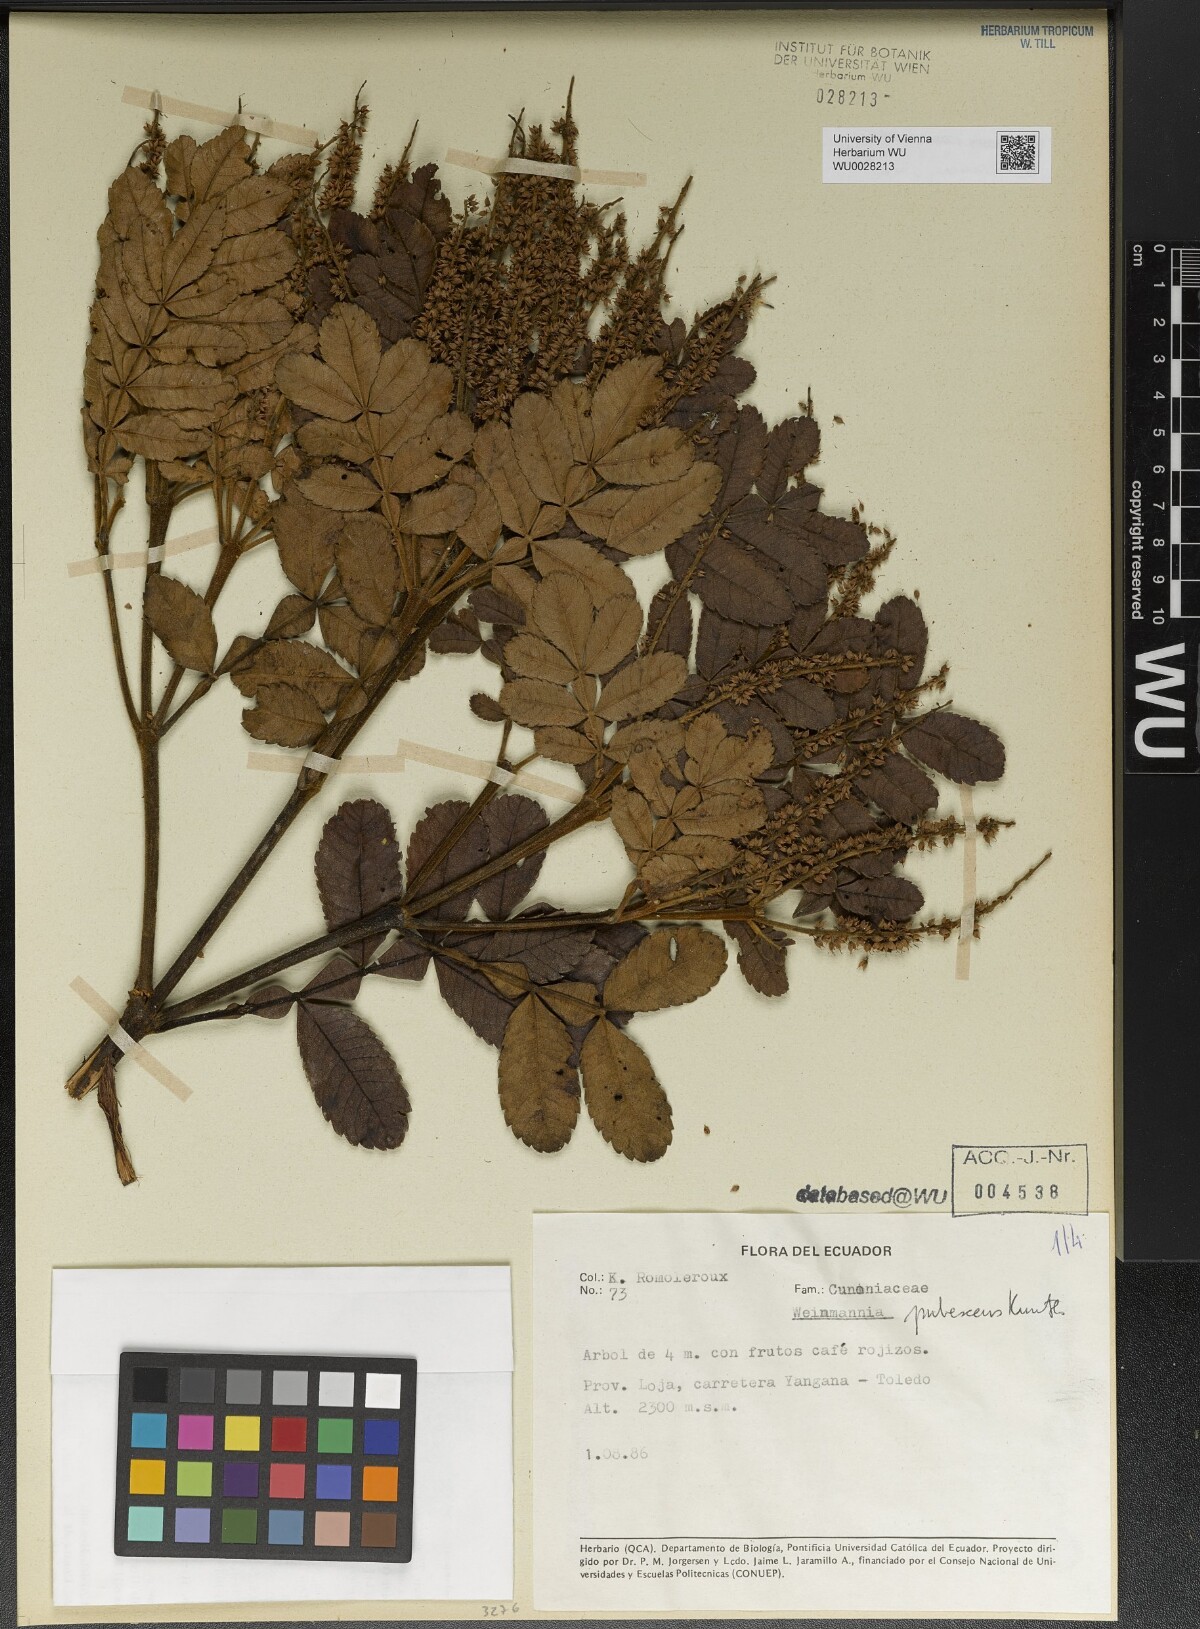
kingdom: Plantae
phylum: Tracheophyta
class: Magnoliopsida
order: Oxalidales
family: Cunoniaceae
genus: Weinmannia
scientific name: Weinmannia pubescens
